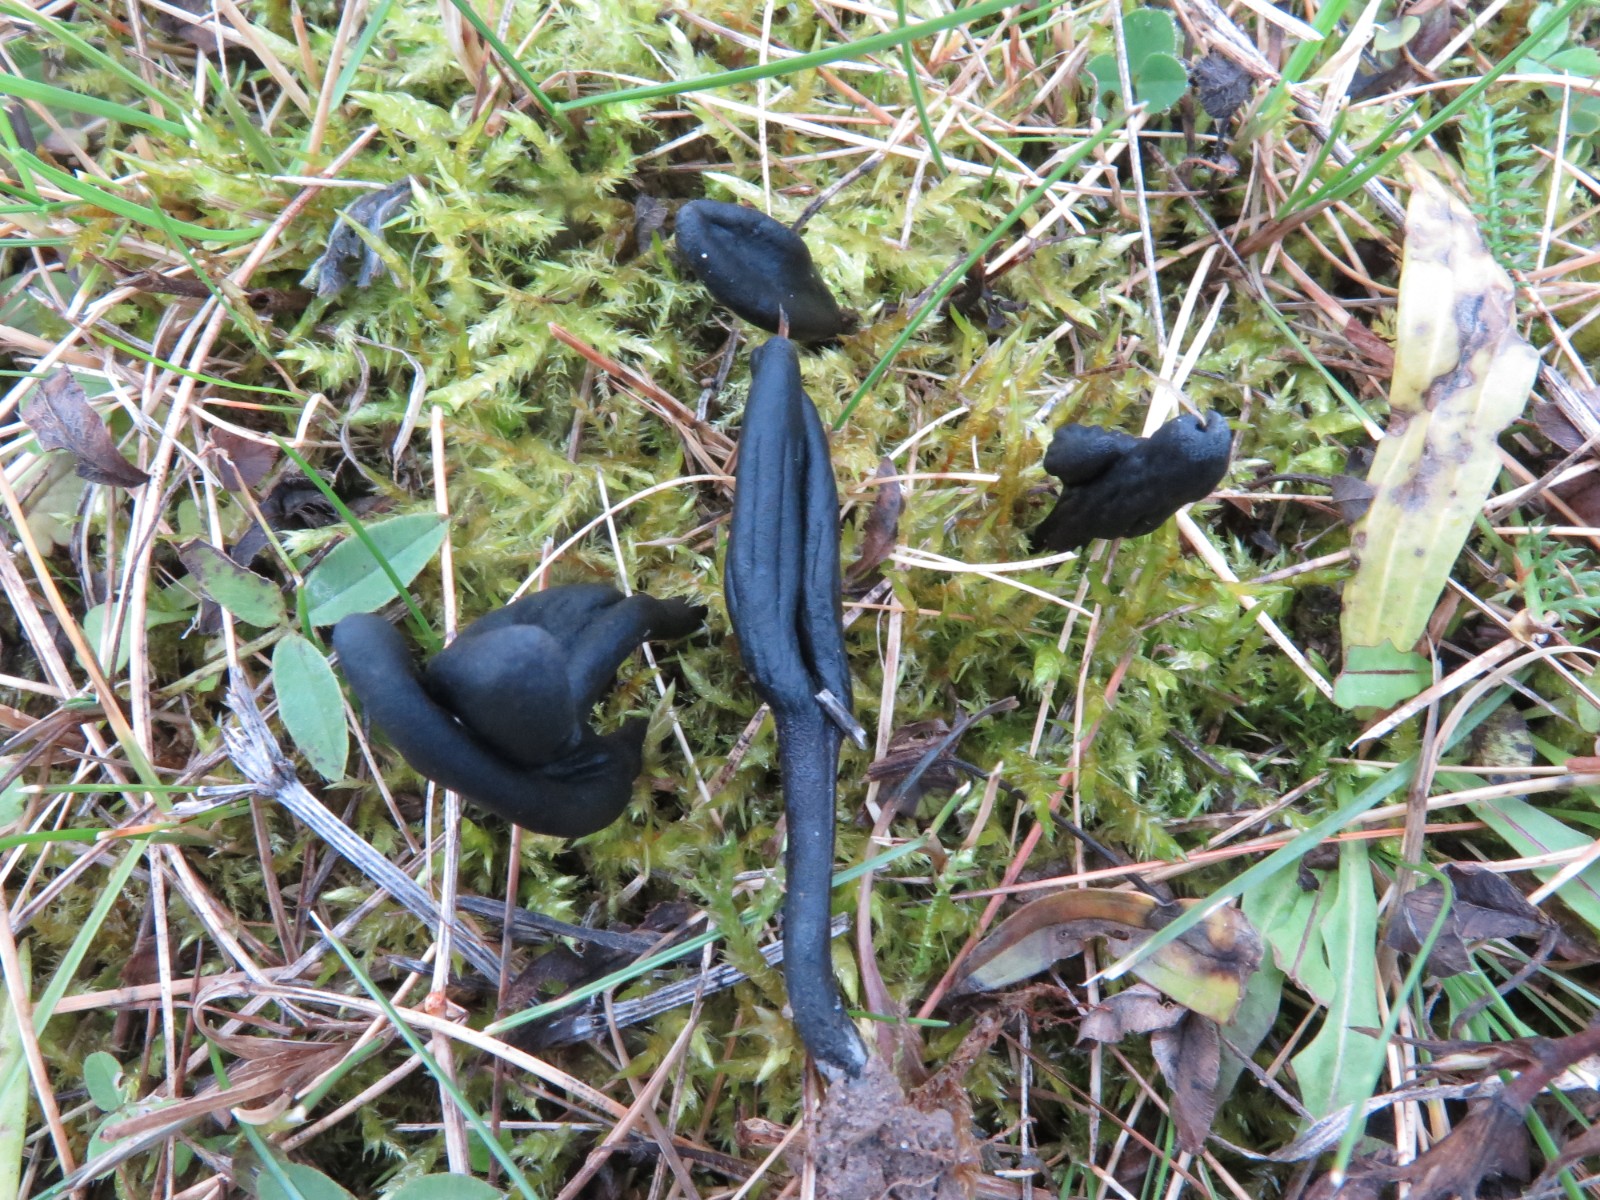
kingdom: Fungi
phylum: Ascomycota
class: Geoglossomycetes
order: Geoglossales
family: Geoglossaceae
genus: Geoglossum
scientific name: Geoglossum cookeianum
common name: bred jordtunge
